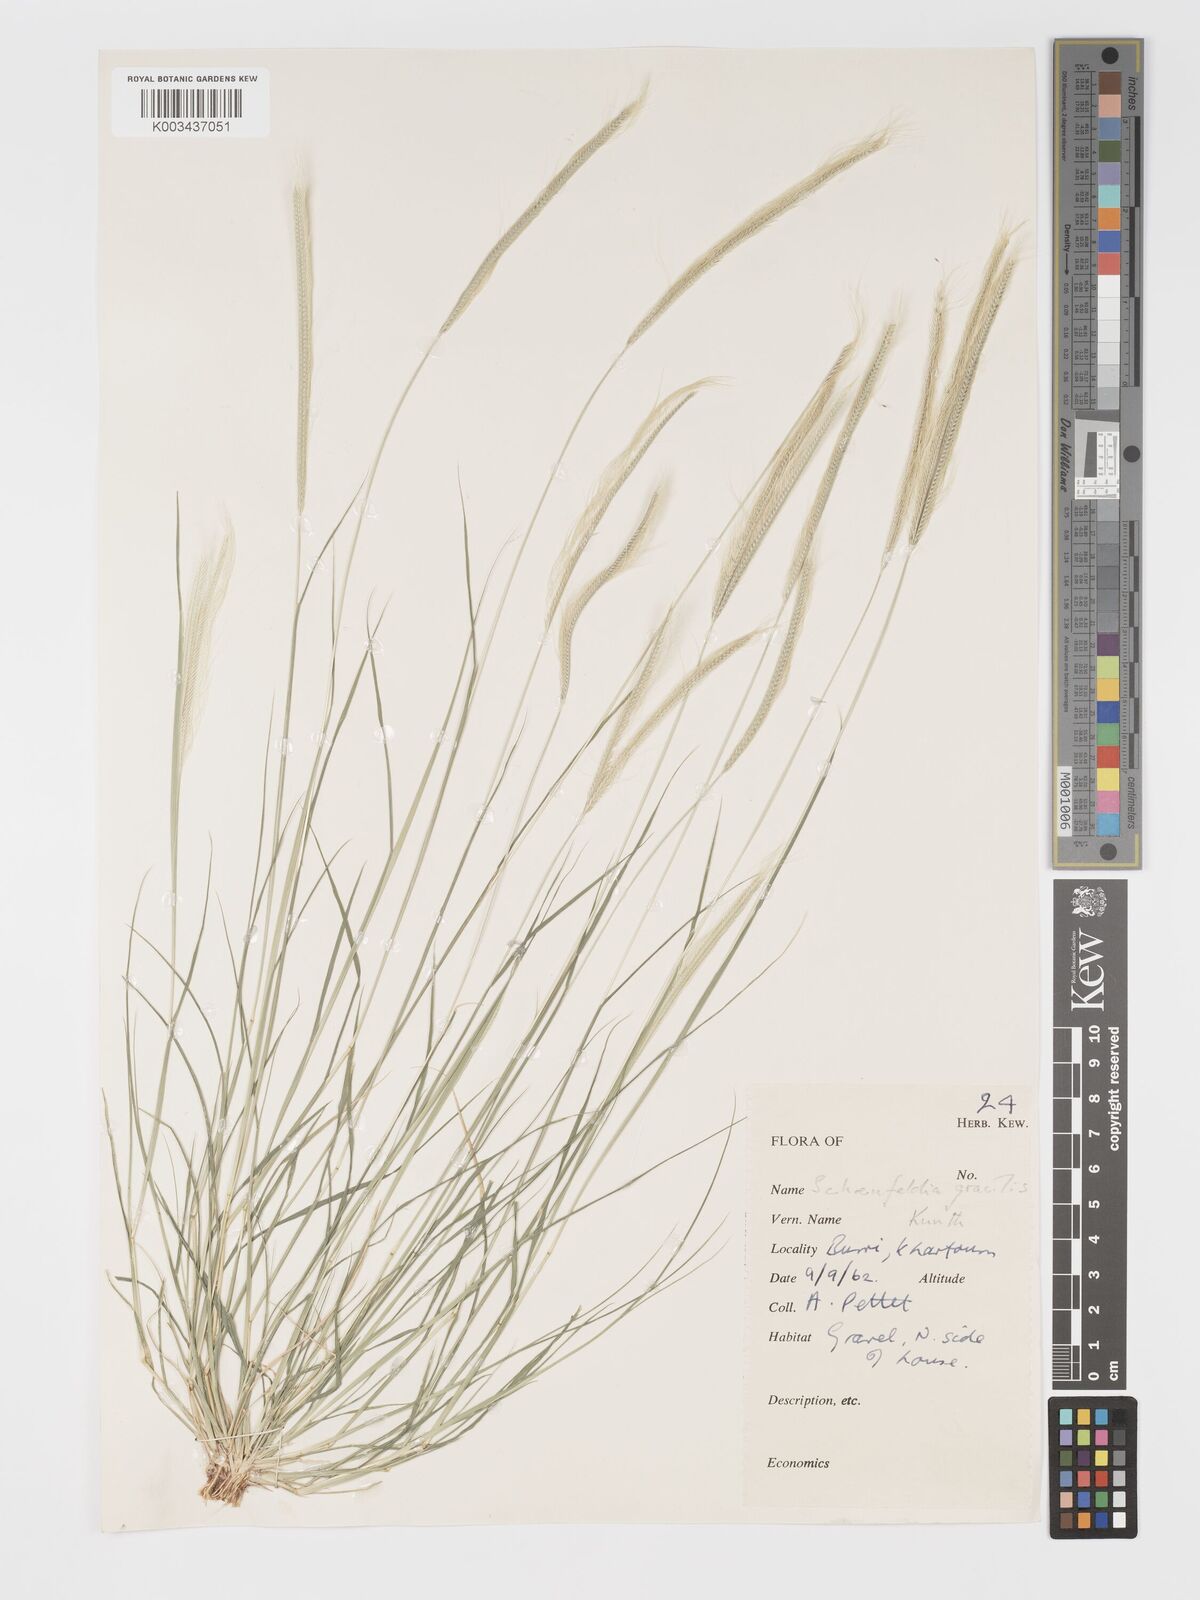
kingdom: Plantae
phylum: Tracheophyta
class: Liliopsida
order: Poales
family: Poaceae
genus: Schoenefeldia
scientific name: Schoenefeldia gracilis
